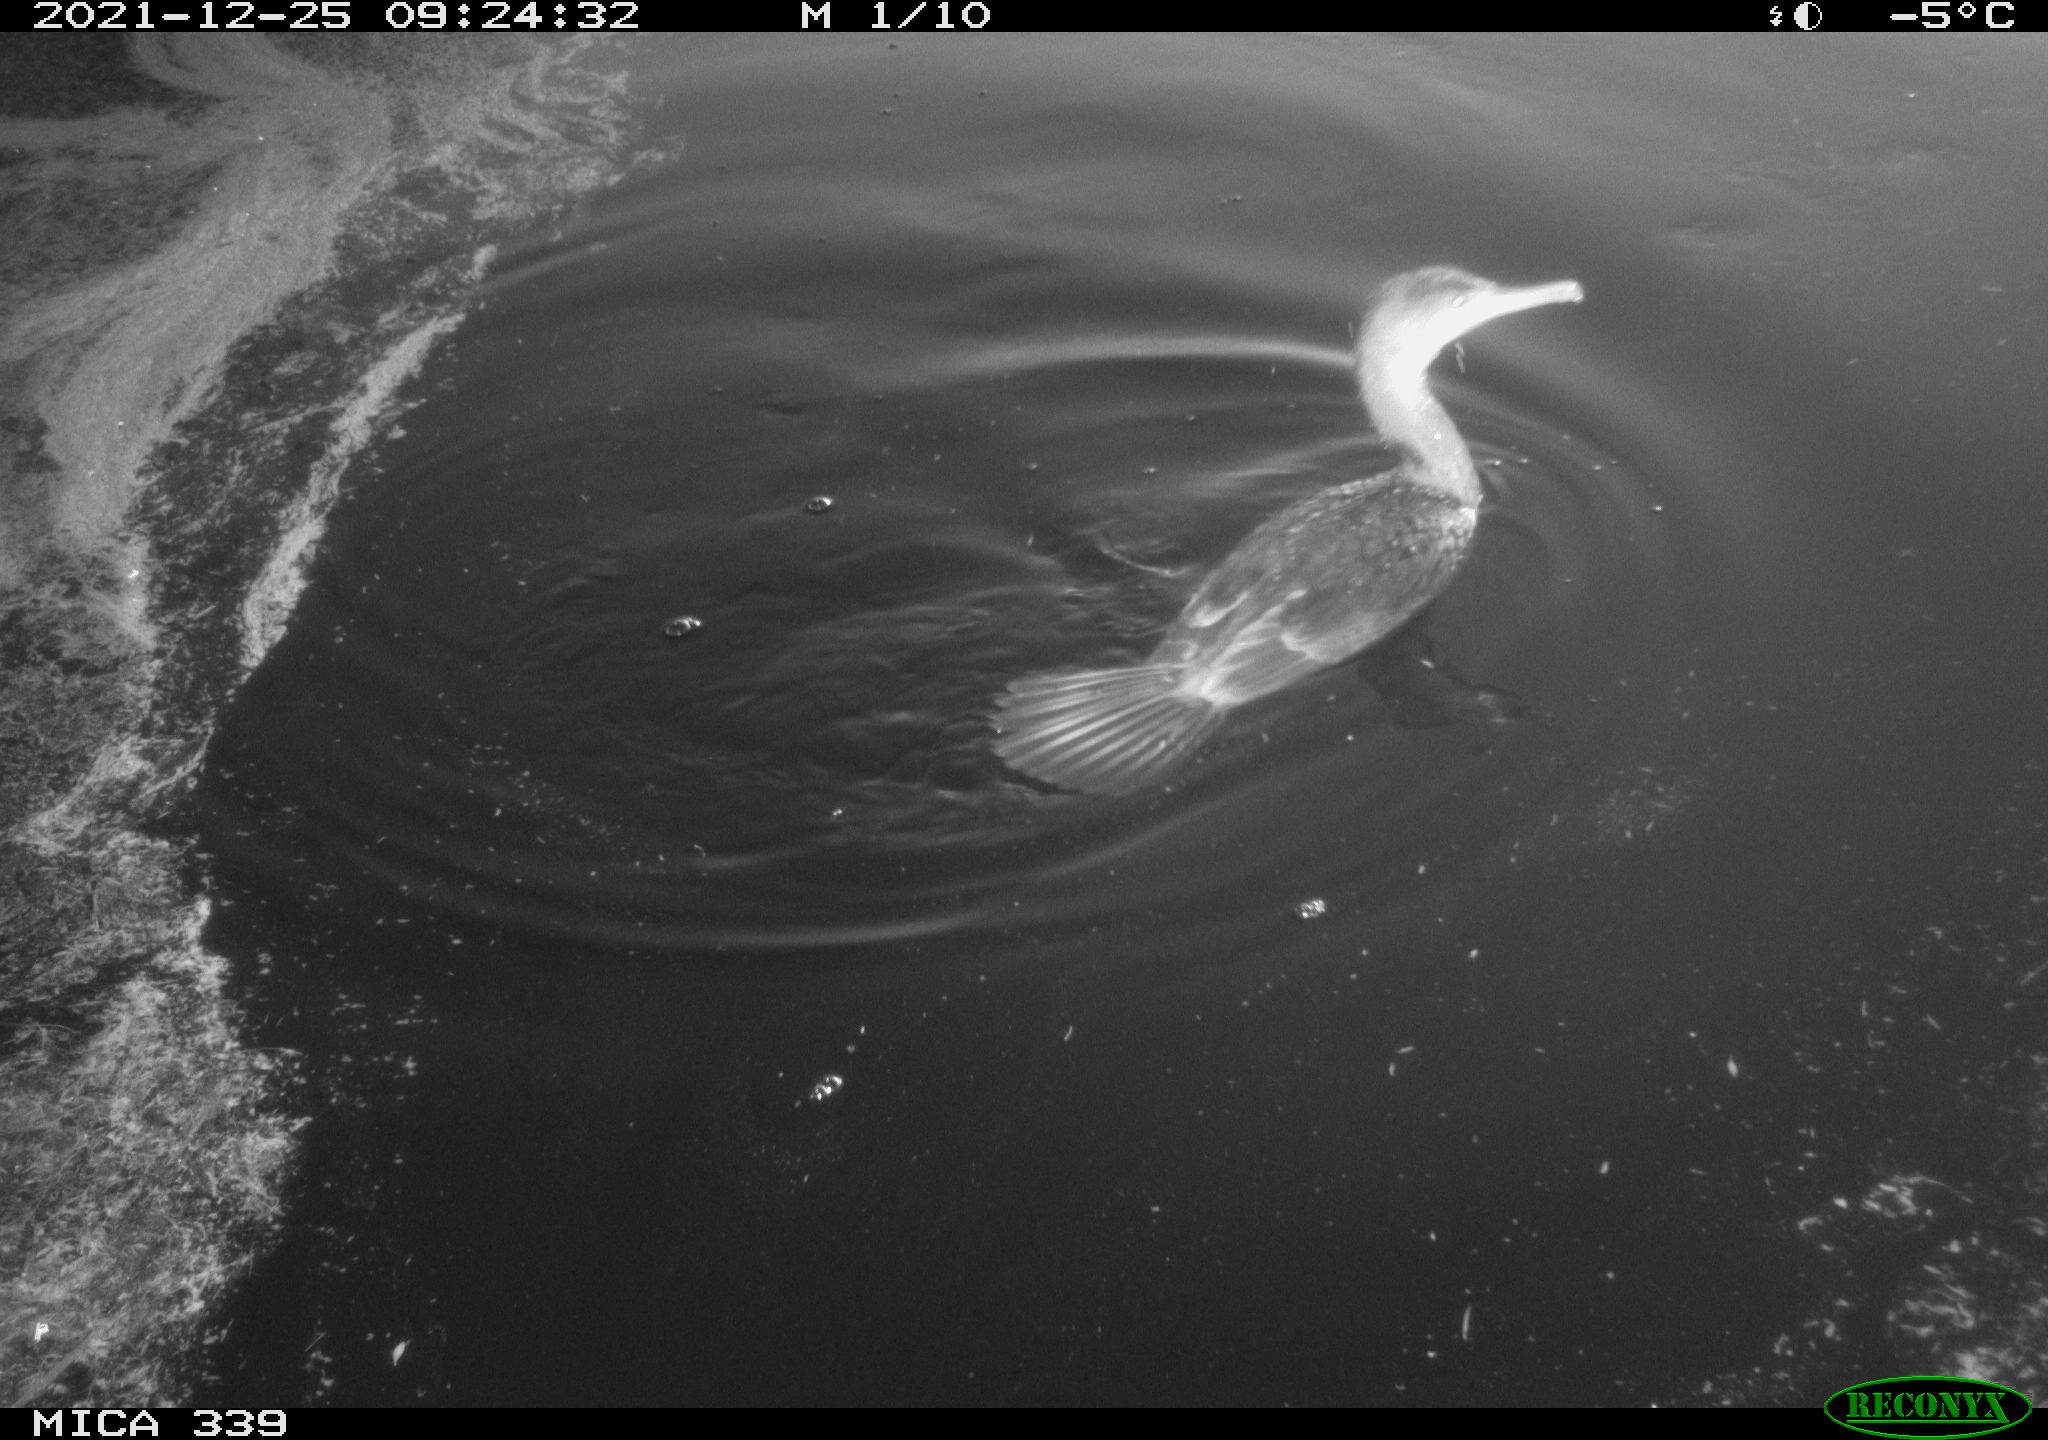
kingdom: Animalia
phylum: Chordata
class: Aves
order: Suliformes
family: Phalacrocoracidae
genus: Phalacrocorax
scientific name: Phalacrocorax carbo
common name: Great cormorant
